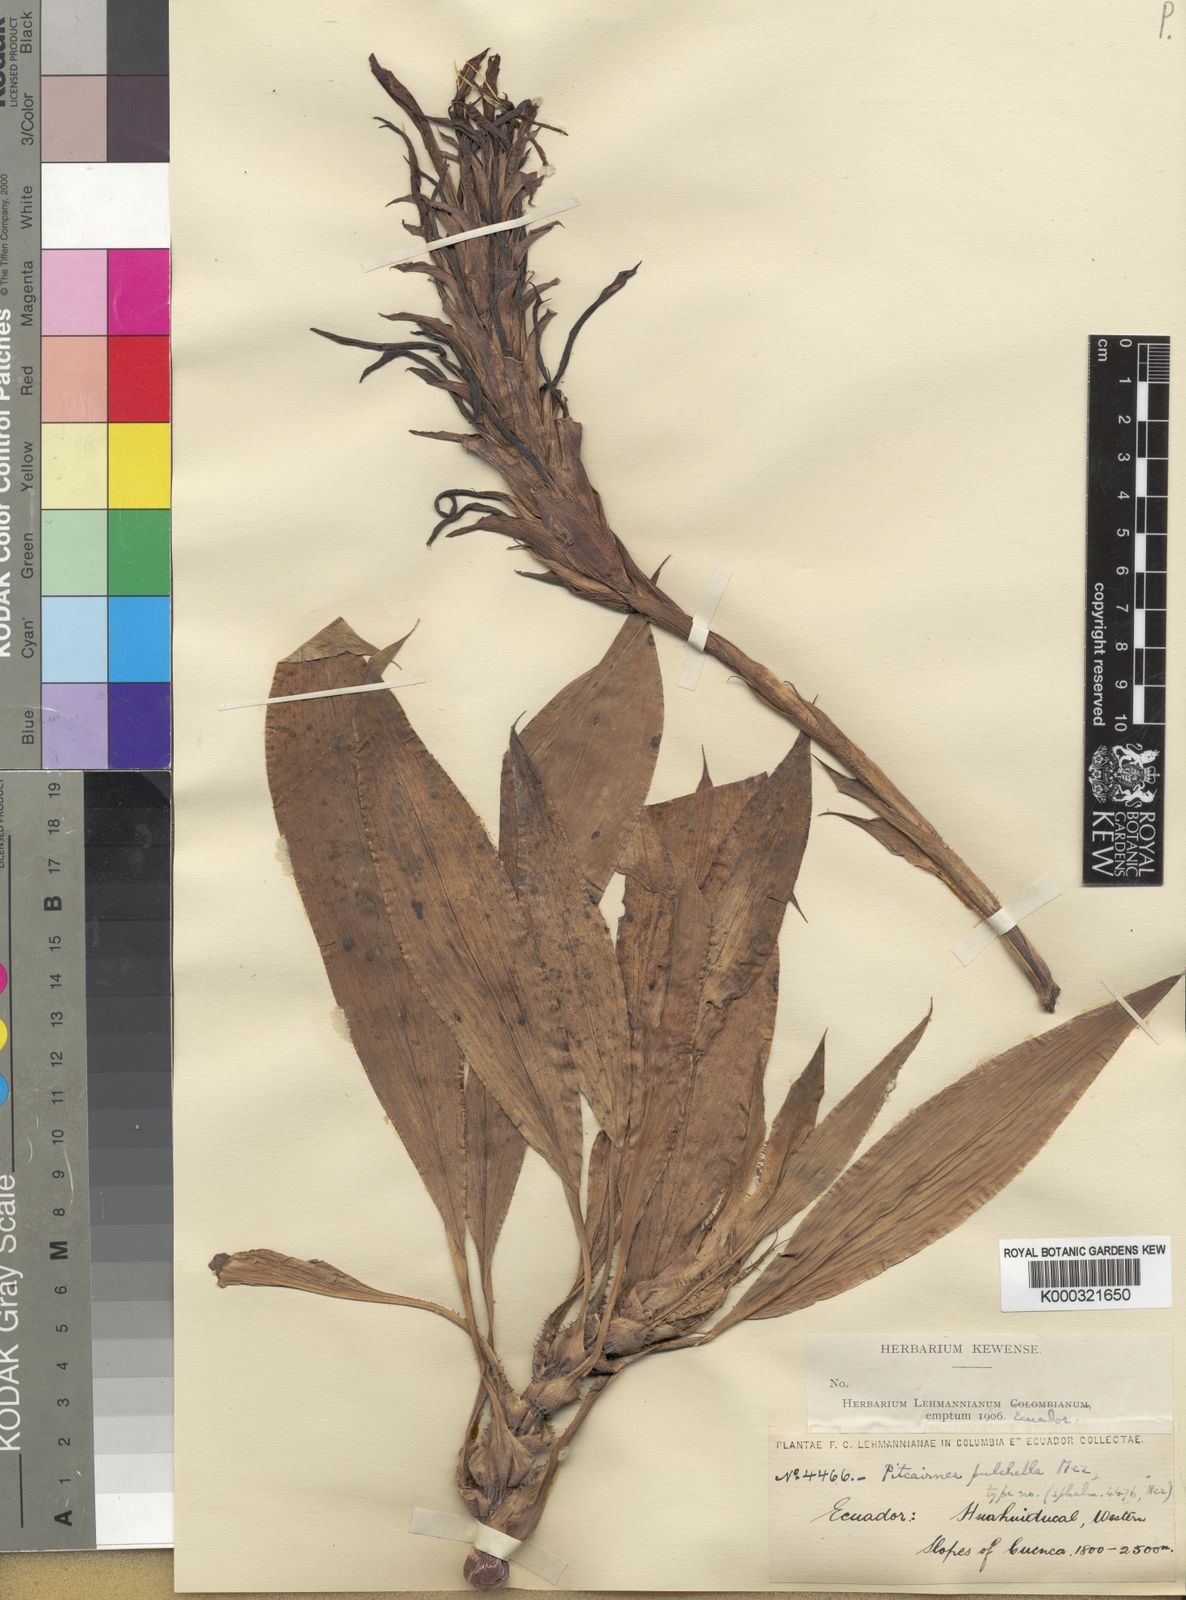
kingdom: Plantae
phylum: Tracheophyta
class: Liliopsida
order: Poales
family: Bromeliaceae
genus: Pitcairnia
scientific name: Pitcairnia nigra
